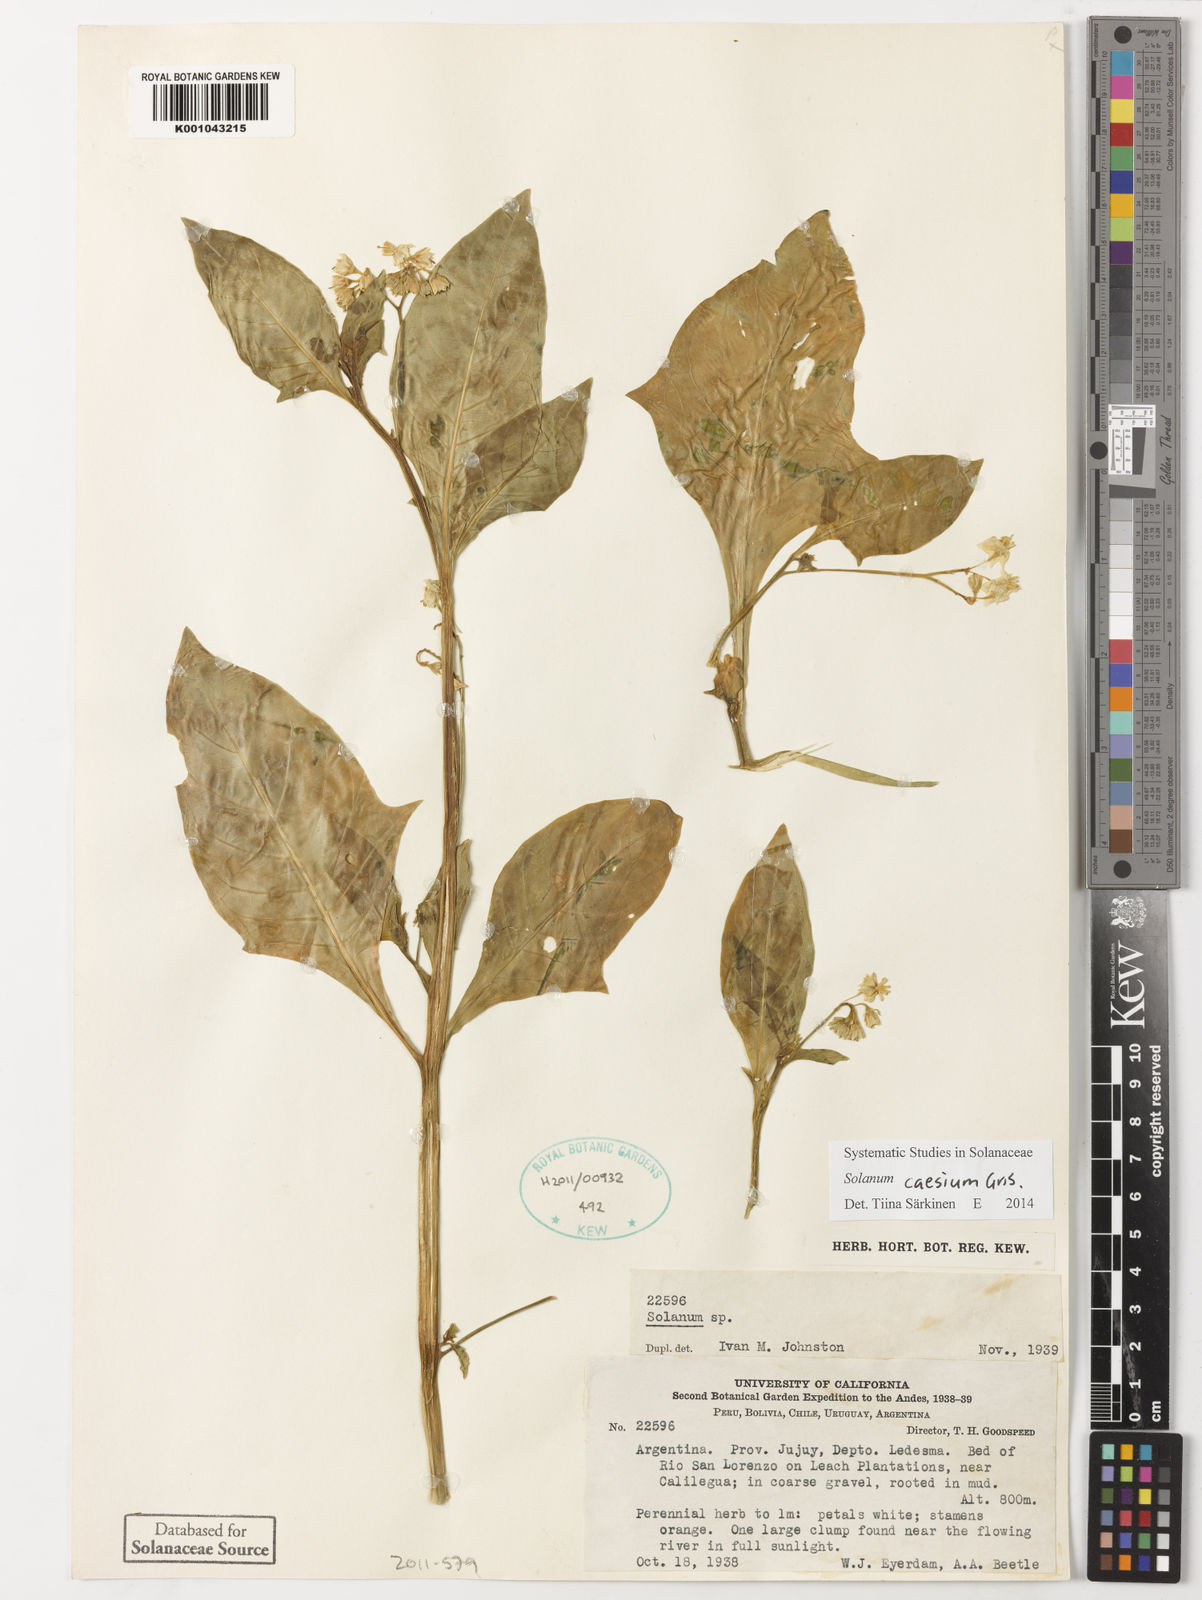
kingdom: Plantae
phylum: Tracheophyta
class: Magnoliopsida
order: Solanales
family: Solanaceae
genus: Solanum
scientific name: Solanum caesium
